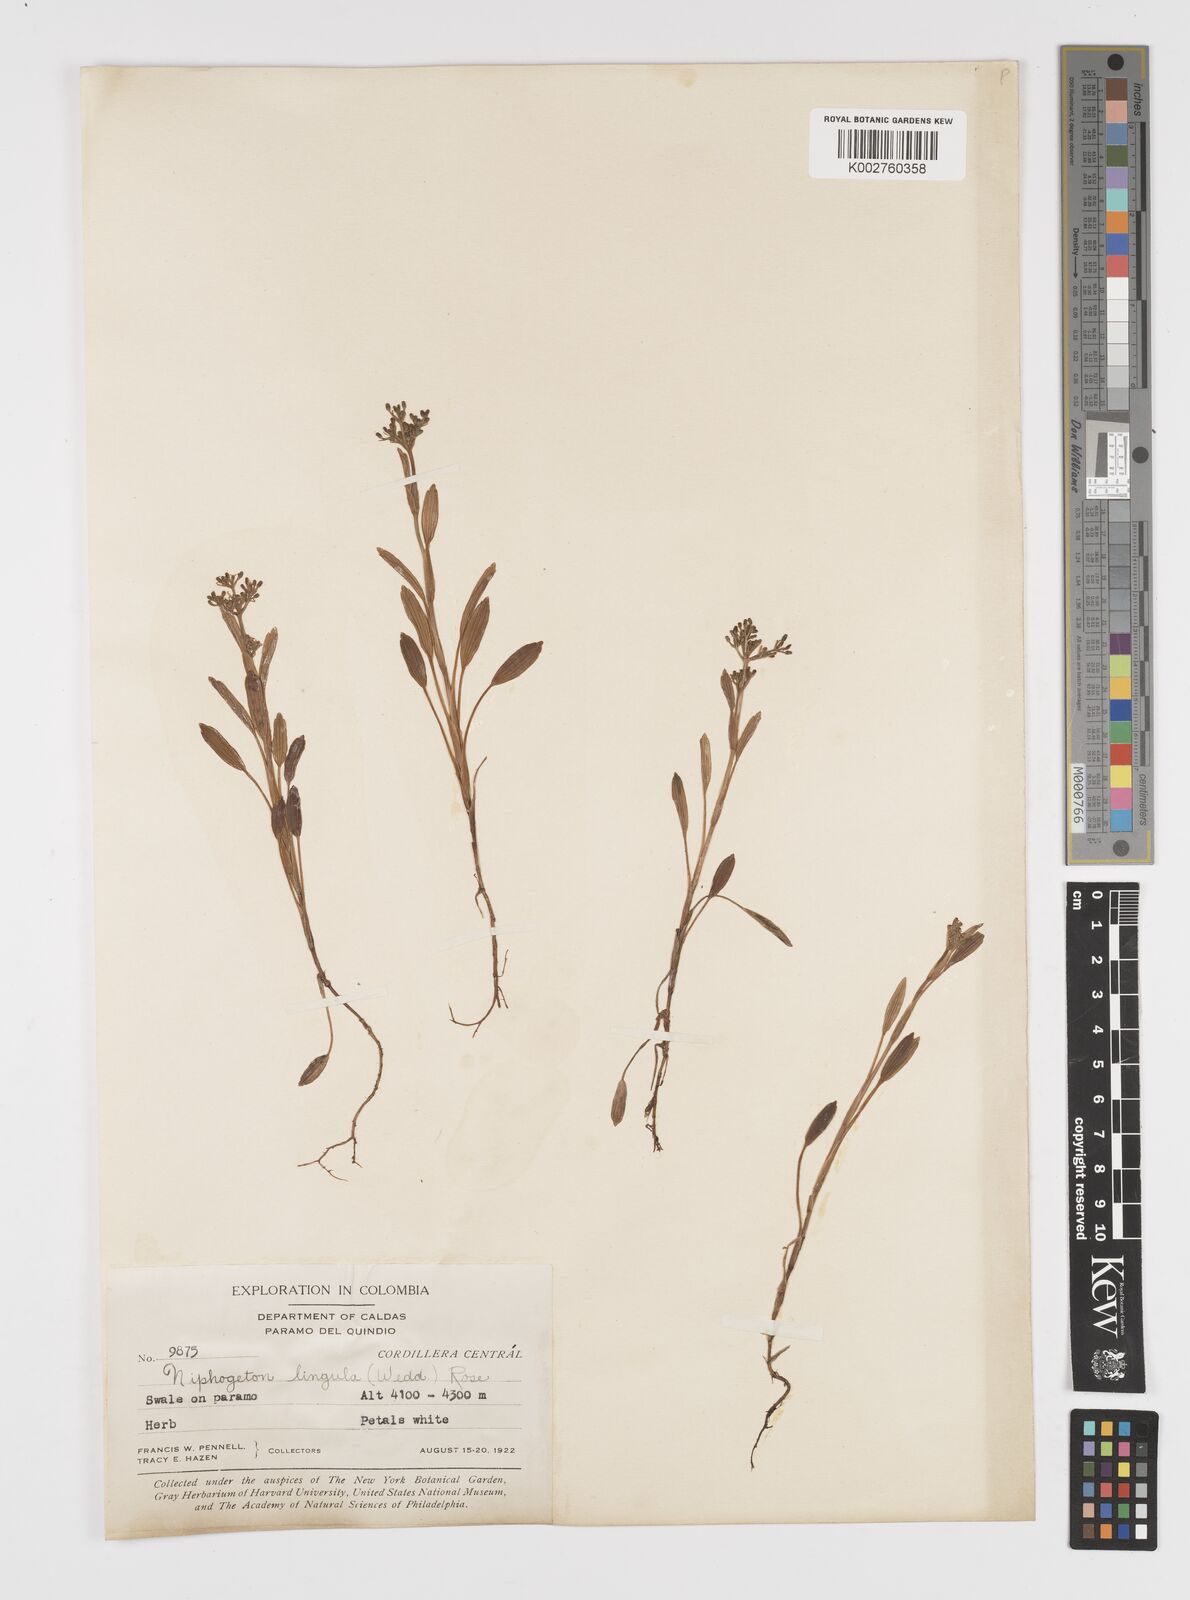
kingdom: Plantae
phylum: Tracheophyta
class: Magnoliopsida
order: Apiales
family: Apiaceae
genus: Niphogeton
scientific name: Niphogeton lingula
